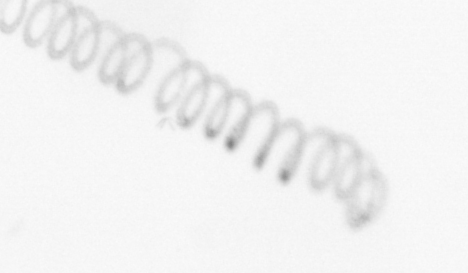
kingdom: Chromista
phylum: Ochrophyta
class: Bacillariophyceae
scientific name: Bacillariophyceae
